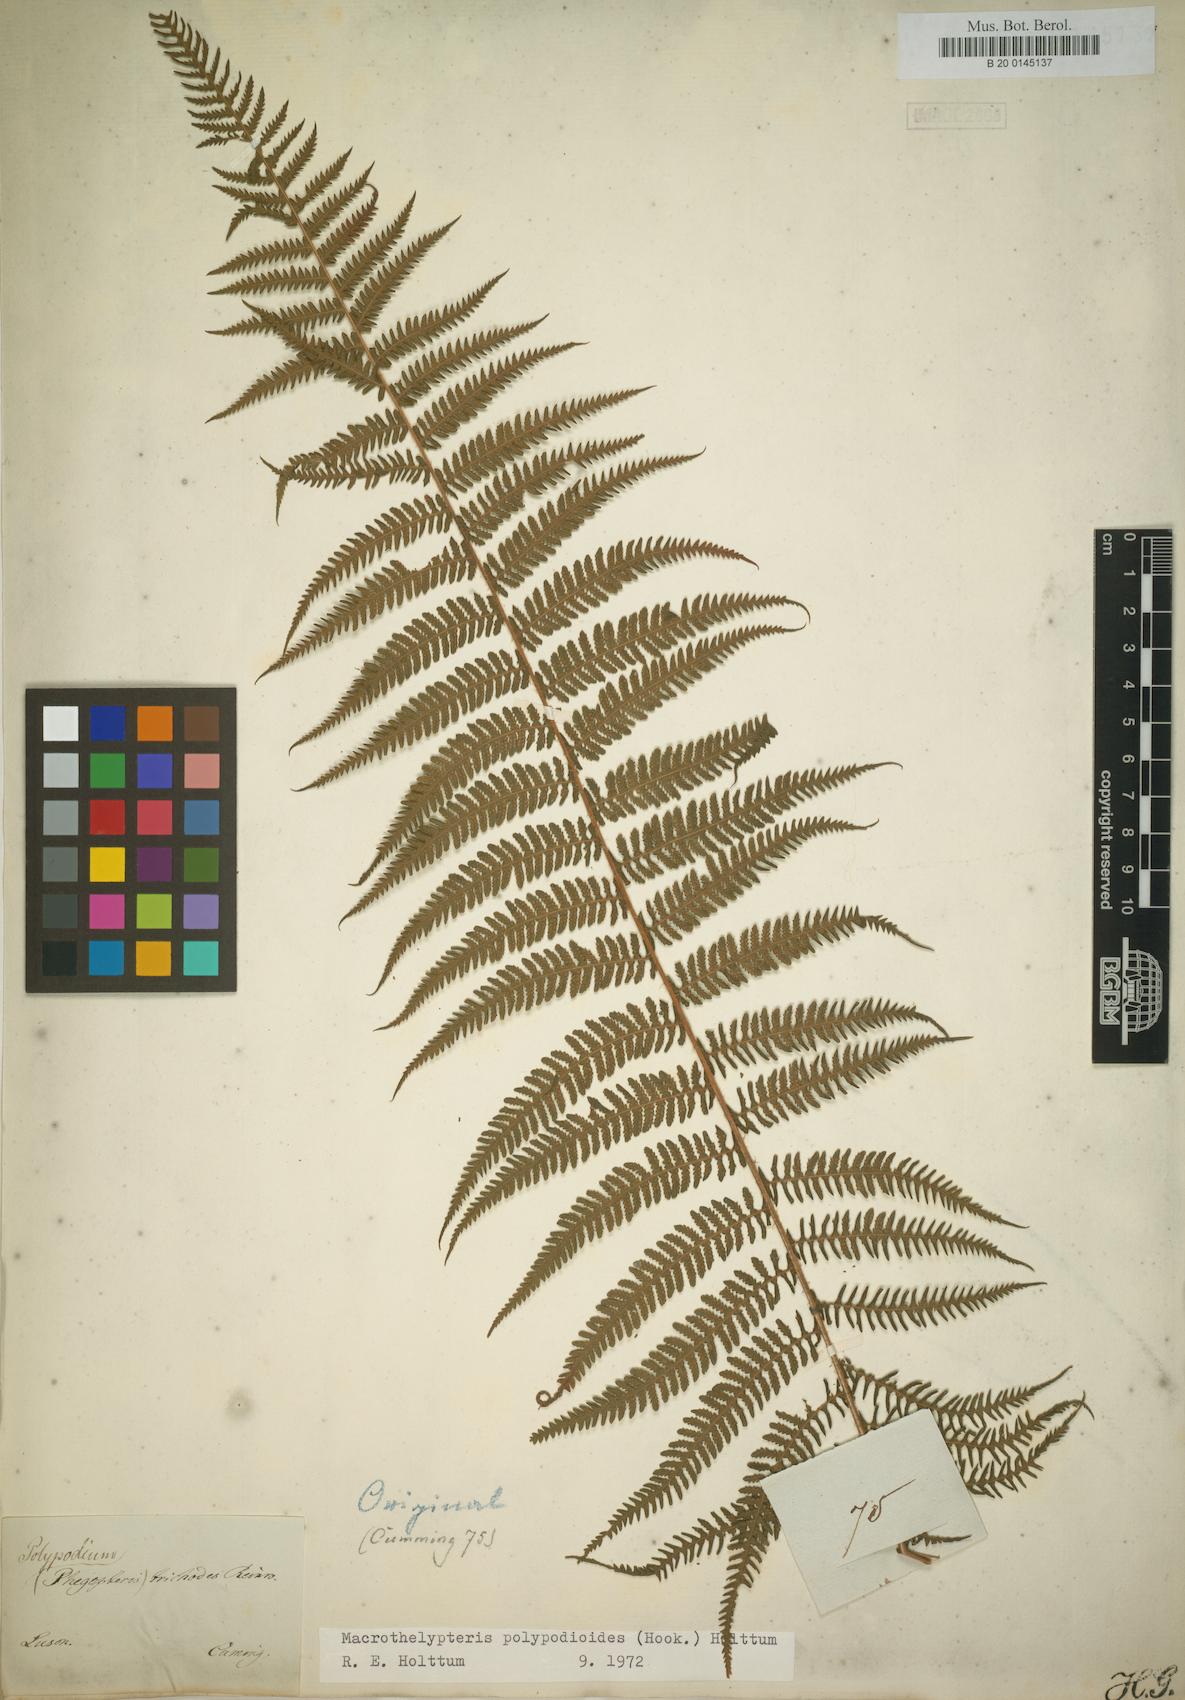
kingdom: Plantae
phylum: Tracheophyta
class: Polypodiopsida
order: Polypodiales
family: Thelypteridaceae
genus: Macrothelypteris
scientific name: Macrothelypteris polypodioides
